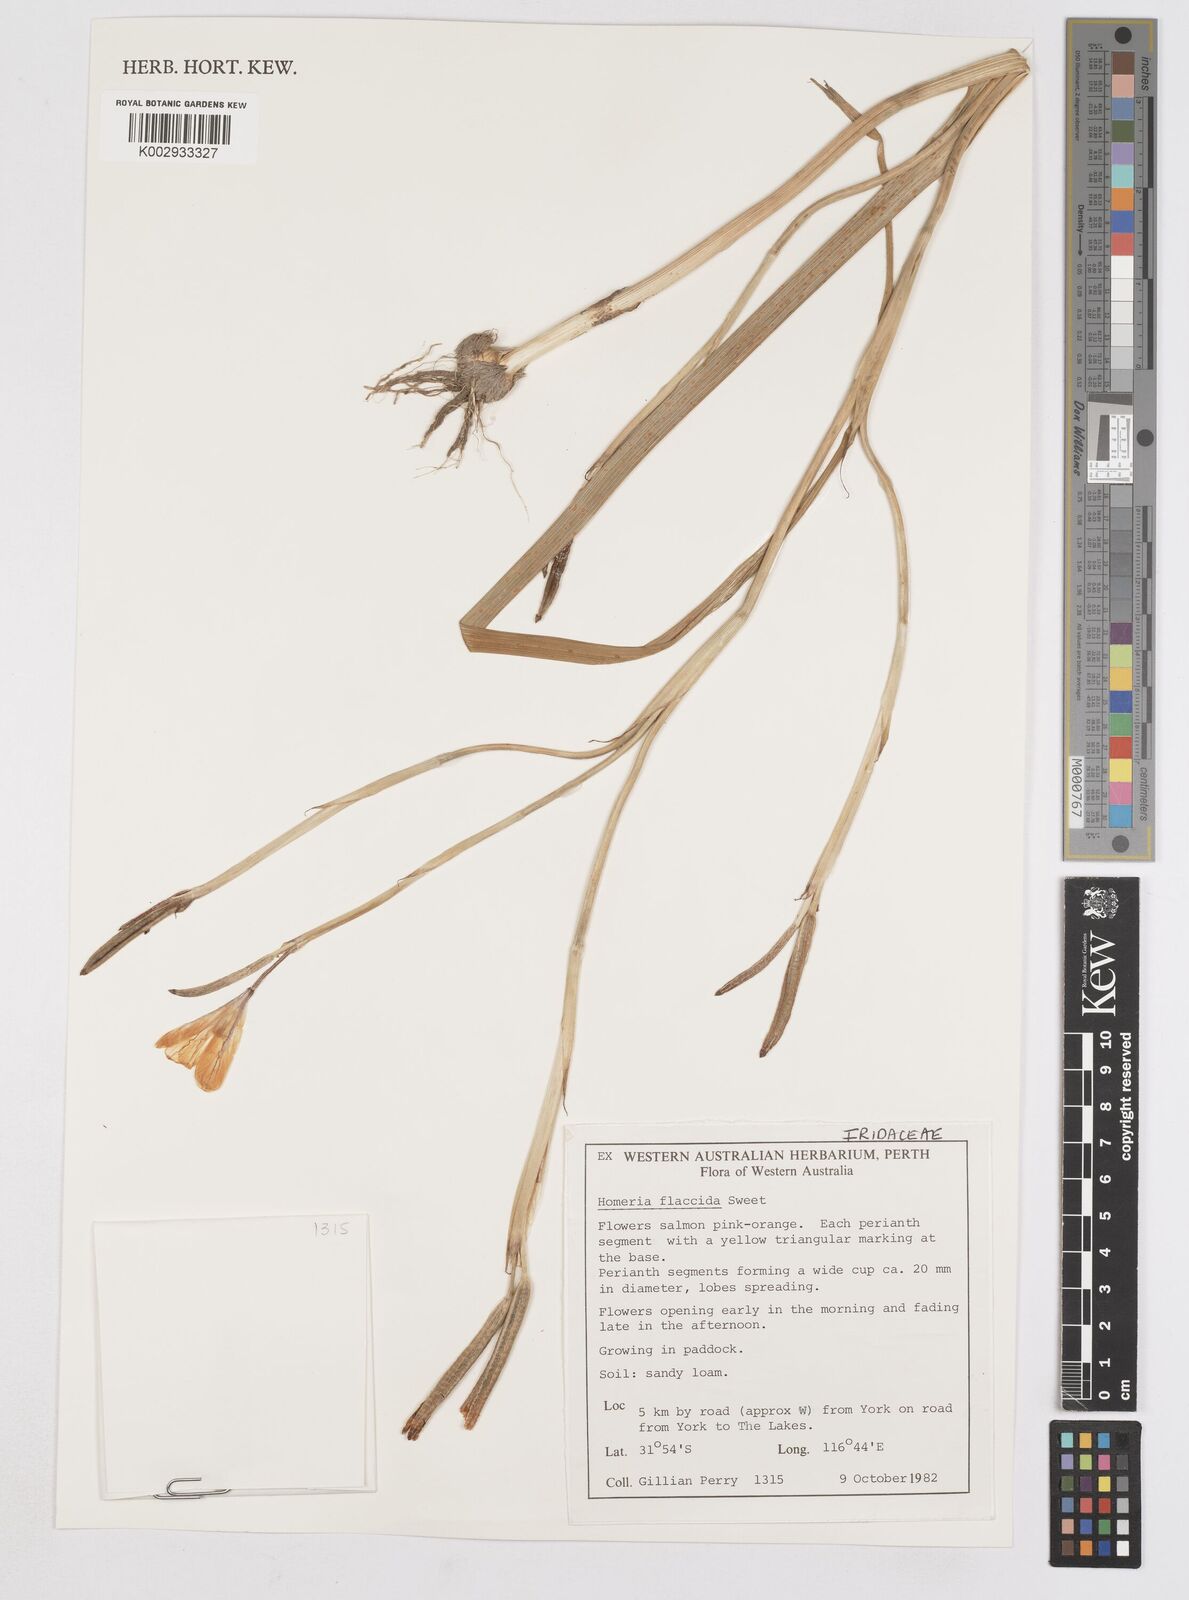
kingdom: Plantae
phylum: Tracheophyta
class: Liliopsida
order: Asparagales
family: Iridaceae
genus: Moraea
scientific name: Moraea flaccida
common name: One-leaf cape-tulip
